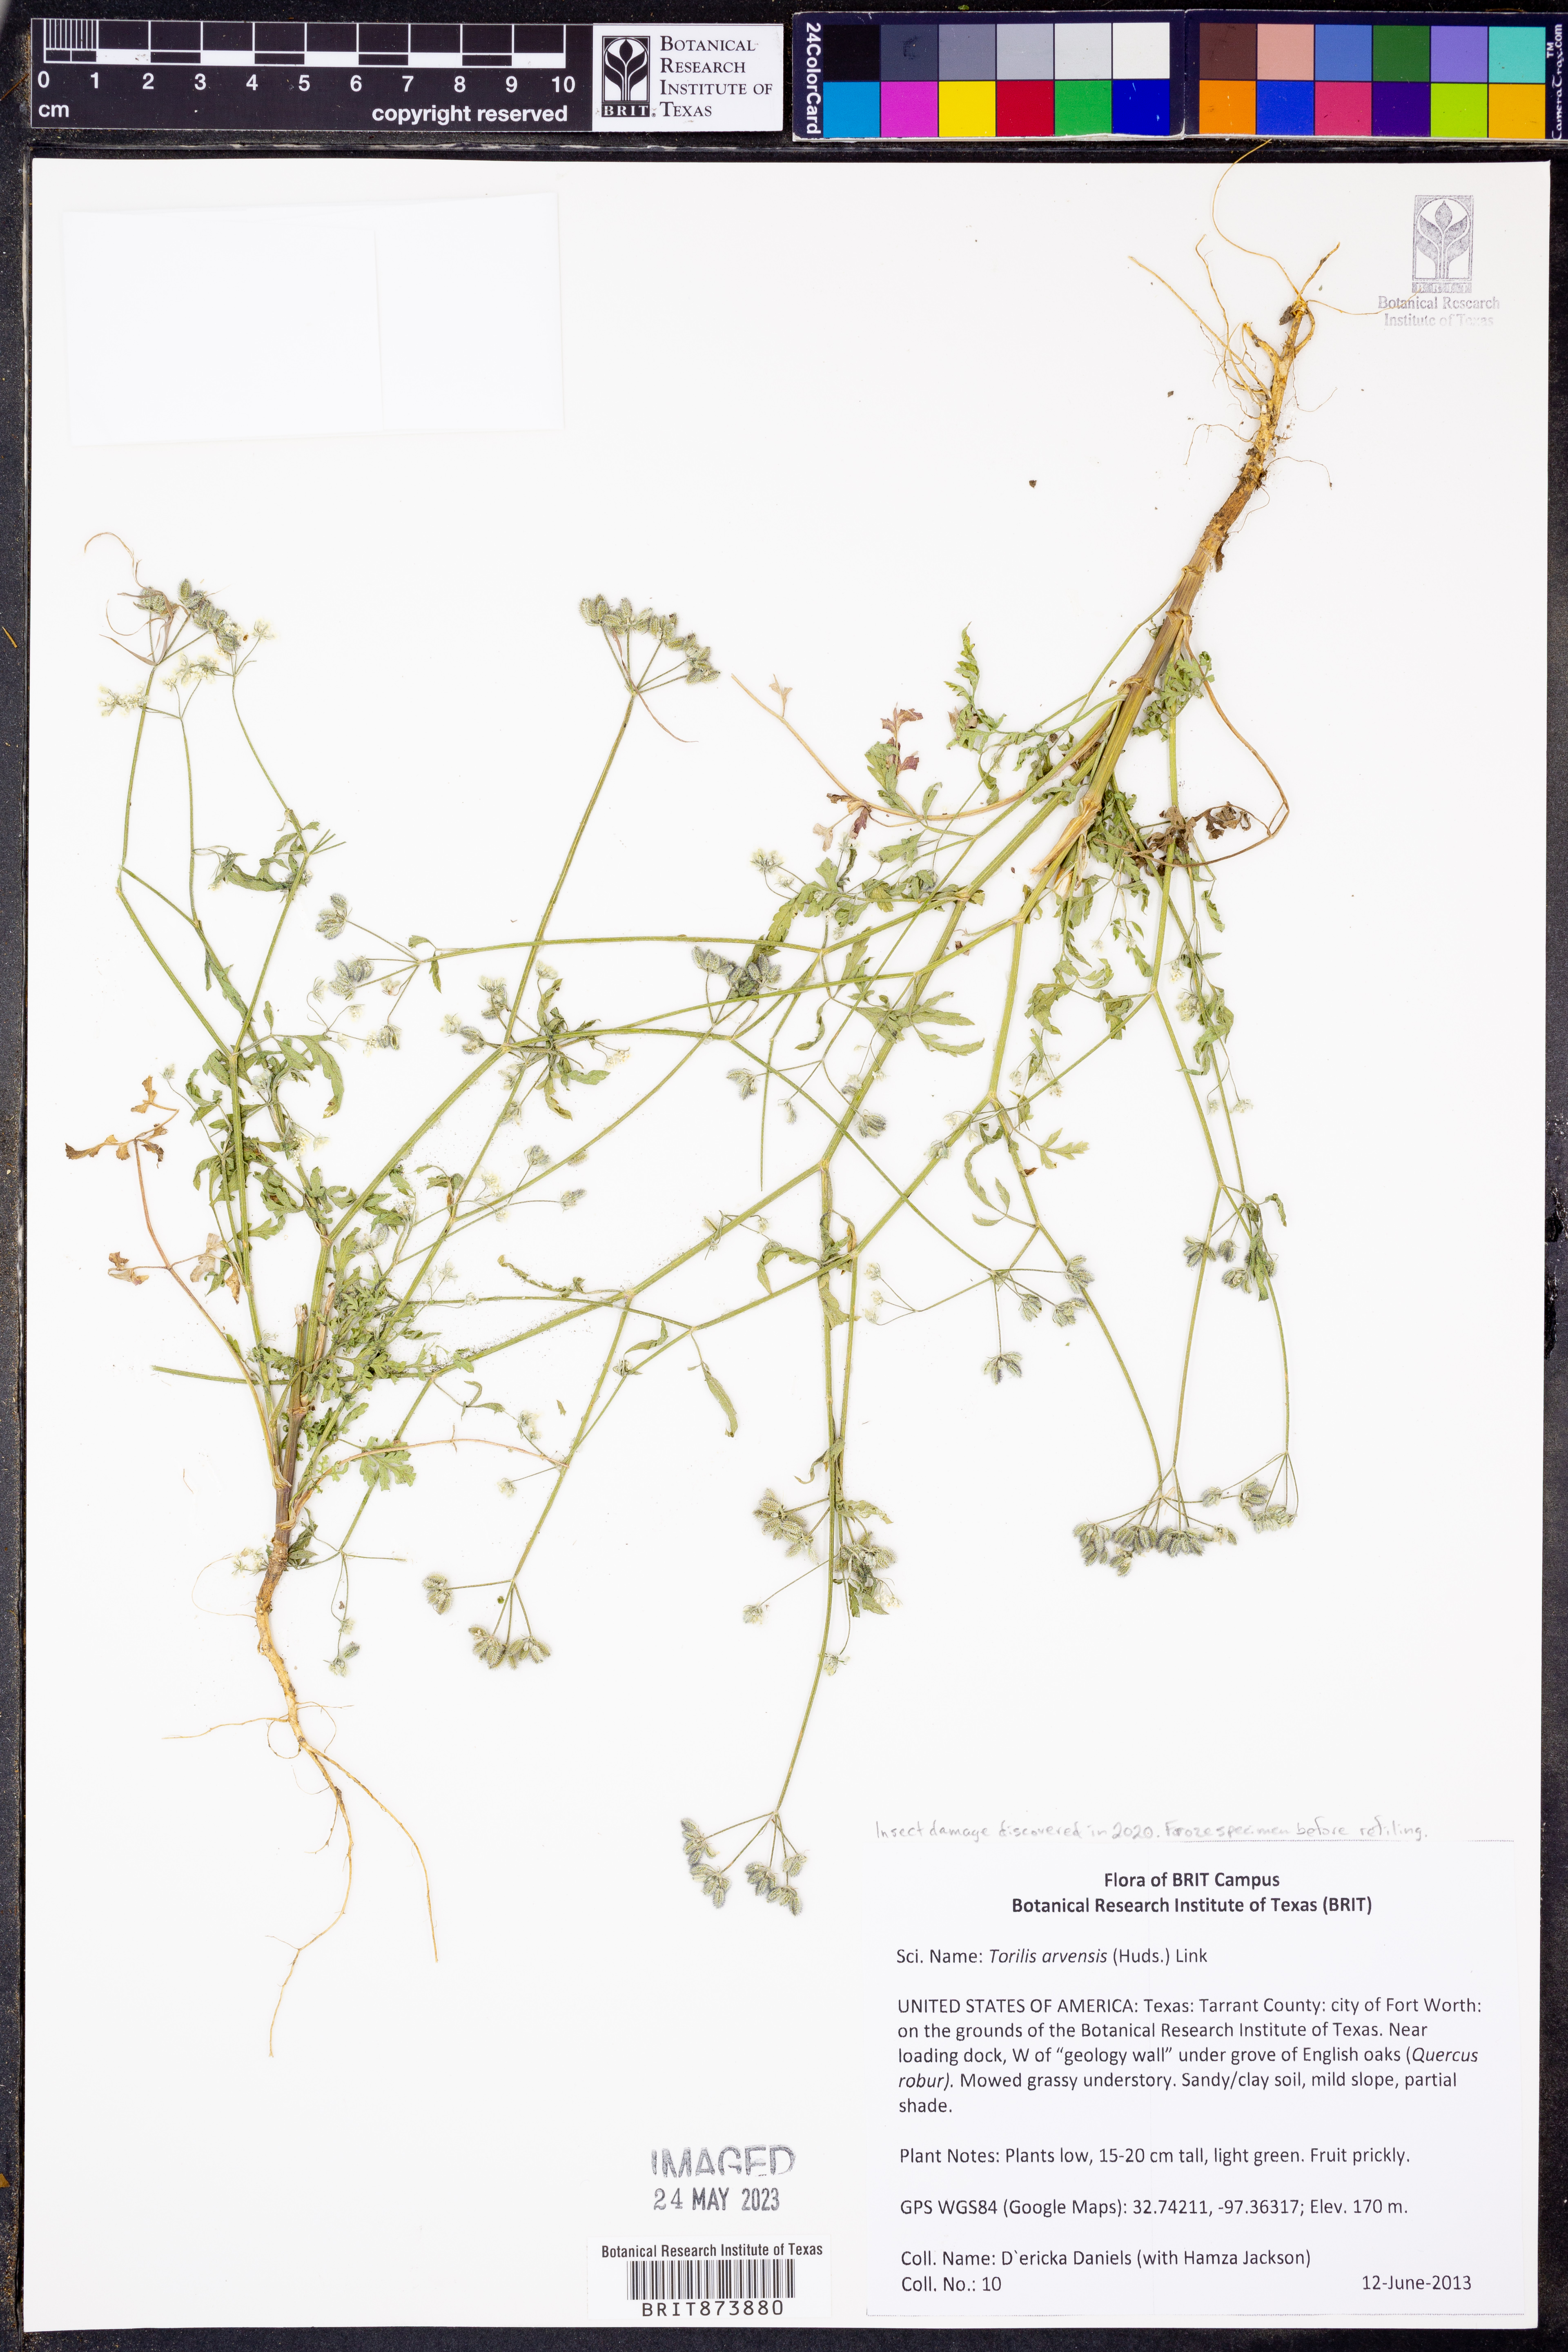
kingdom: Plantae
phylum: Tracheophyta
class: Magnoliopsida
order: Apiales
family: Apiaceae
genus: Torilis
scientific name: Torilis arvensis
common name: Spreading hedge-parsley
